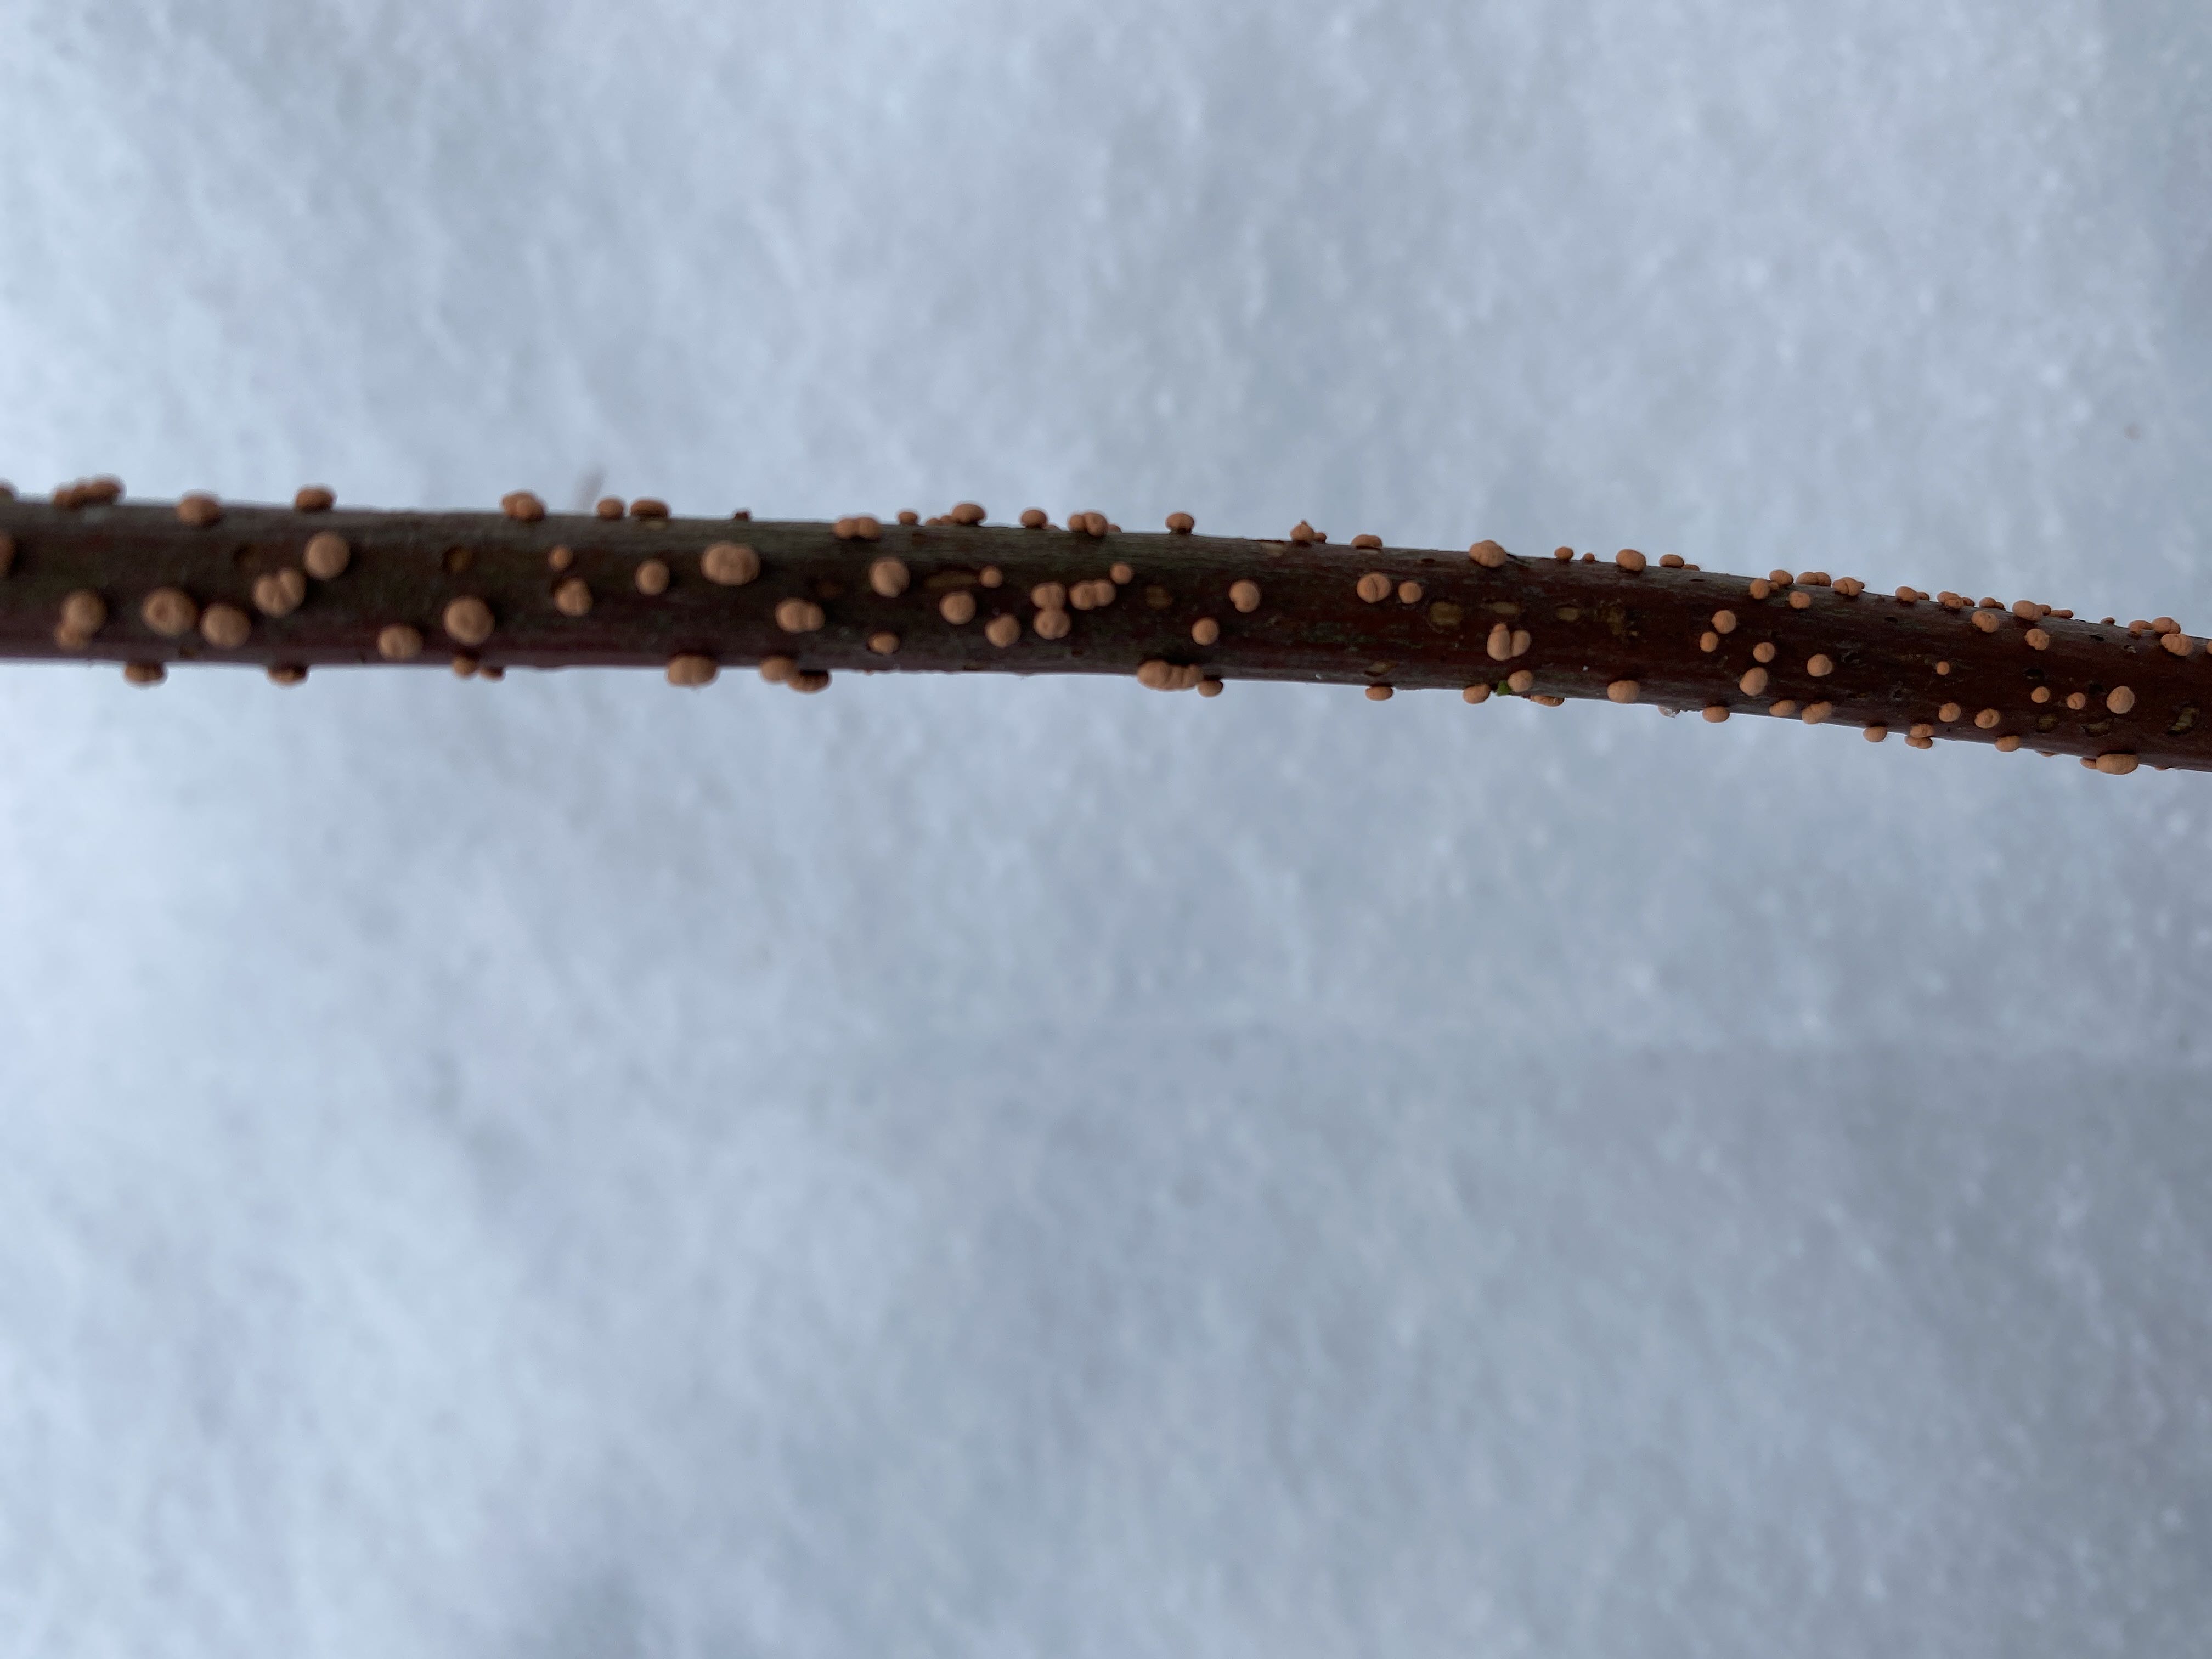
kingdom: Fungi
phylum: Ascomycota
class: Sordariomycetes
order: Hypocreales
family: Nectriaceae
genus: Nectria
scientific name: Nectria cinnabarina
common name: almindelig cinnobersvamp
